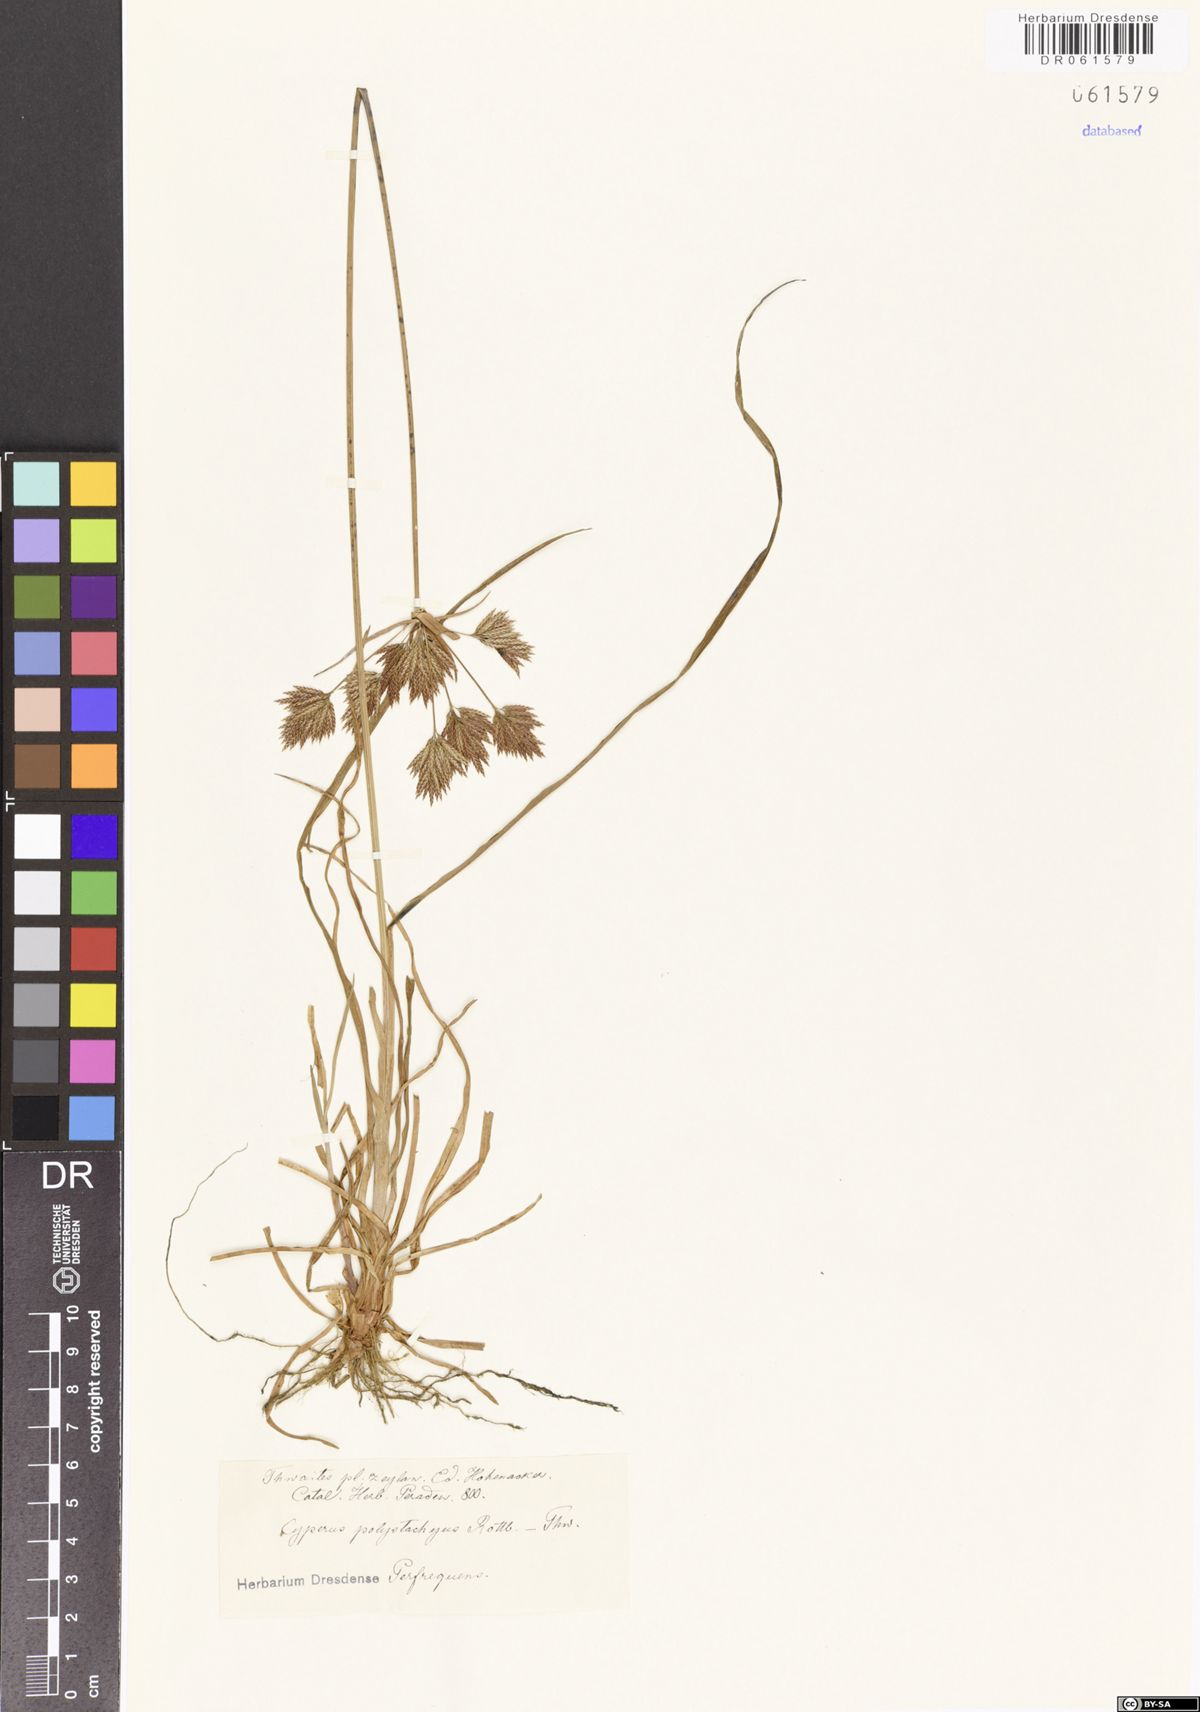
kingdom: Plantae
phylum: Tracheophyta
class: Liliopsida
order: Poales
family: Cyperaceae
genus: Cyperus
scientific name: Cyperus polystachyos
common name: Bunchy flat sedge
